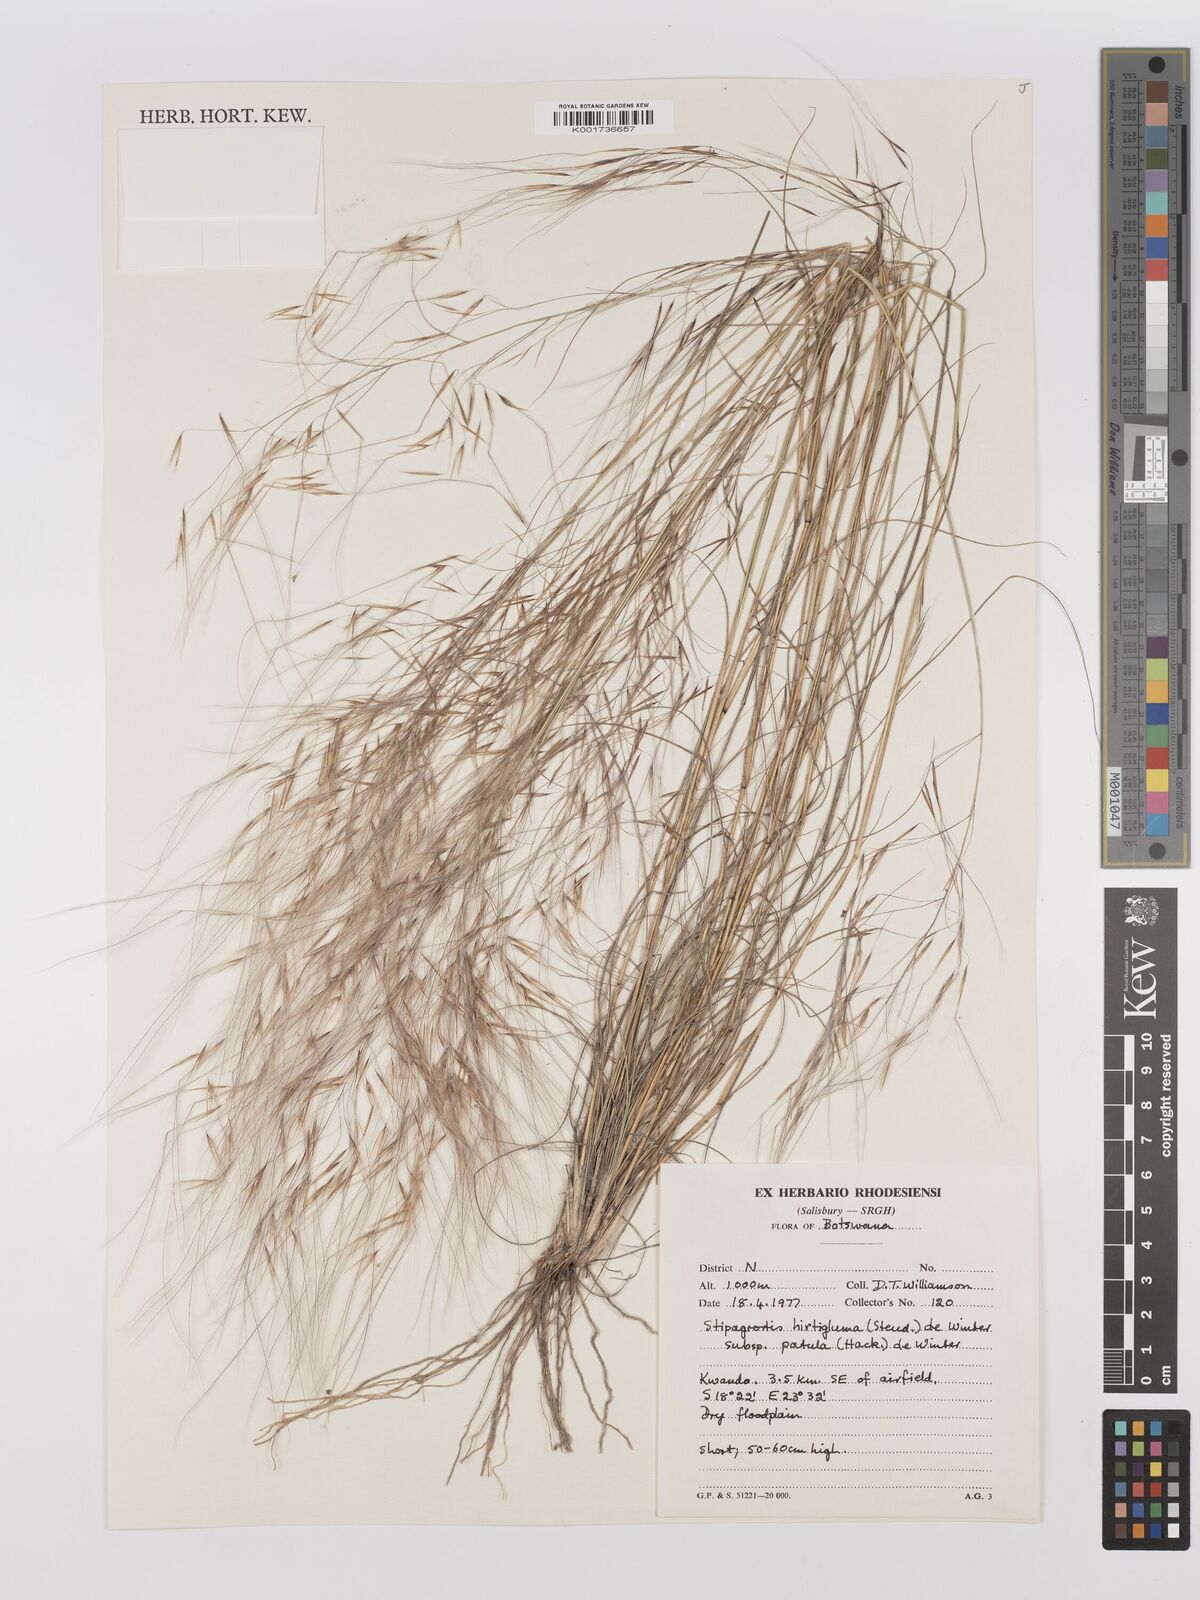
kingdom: Plantae
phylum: Tracheophyta
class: Liliopsida
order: Poales
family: Poaceae
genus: Stipagrostis
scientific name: Stipagrostis hirtigluma
